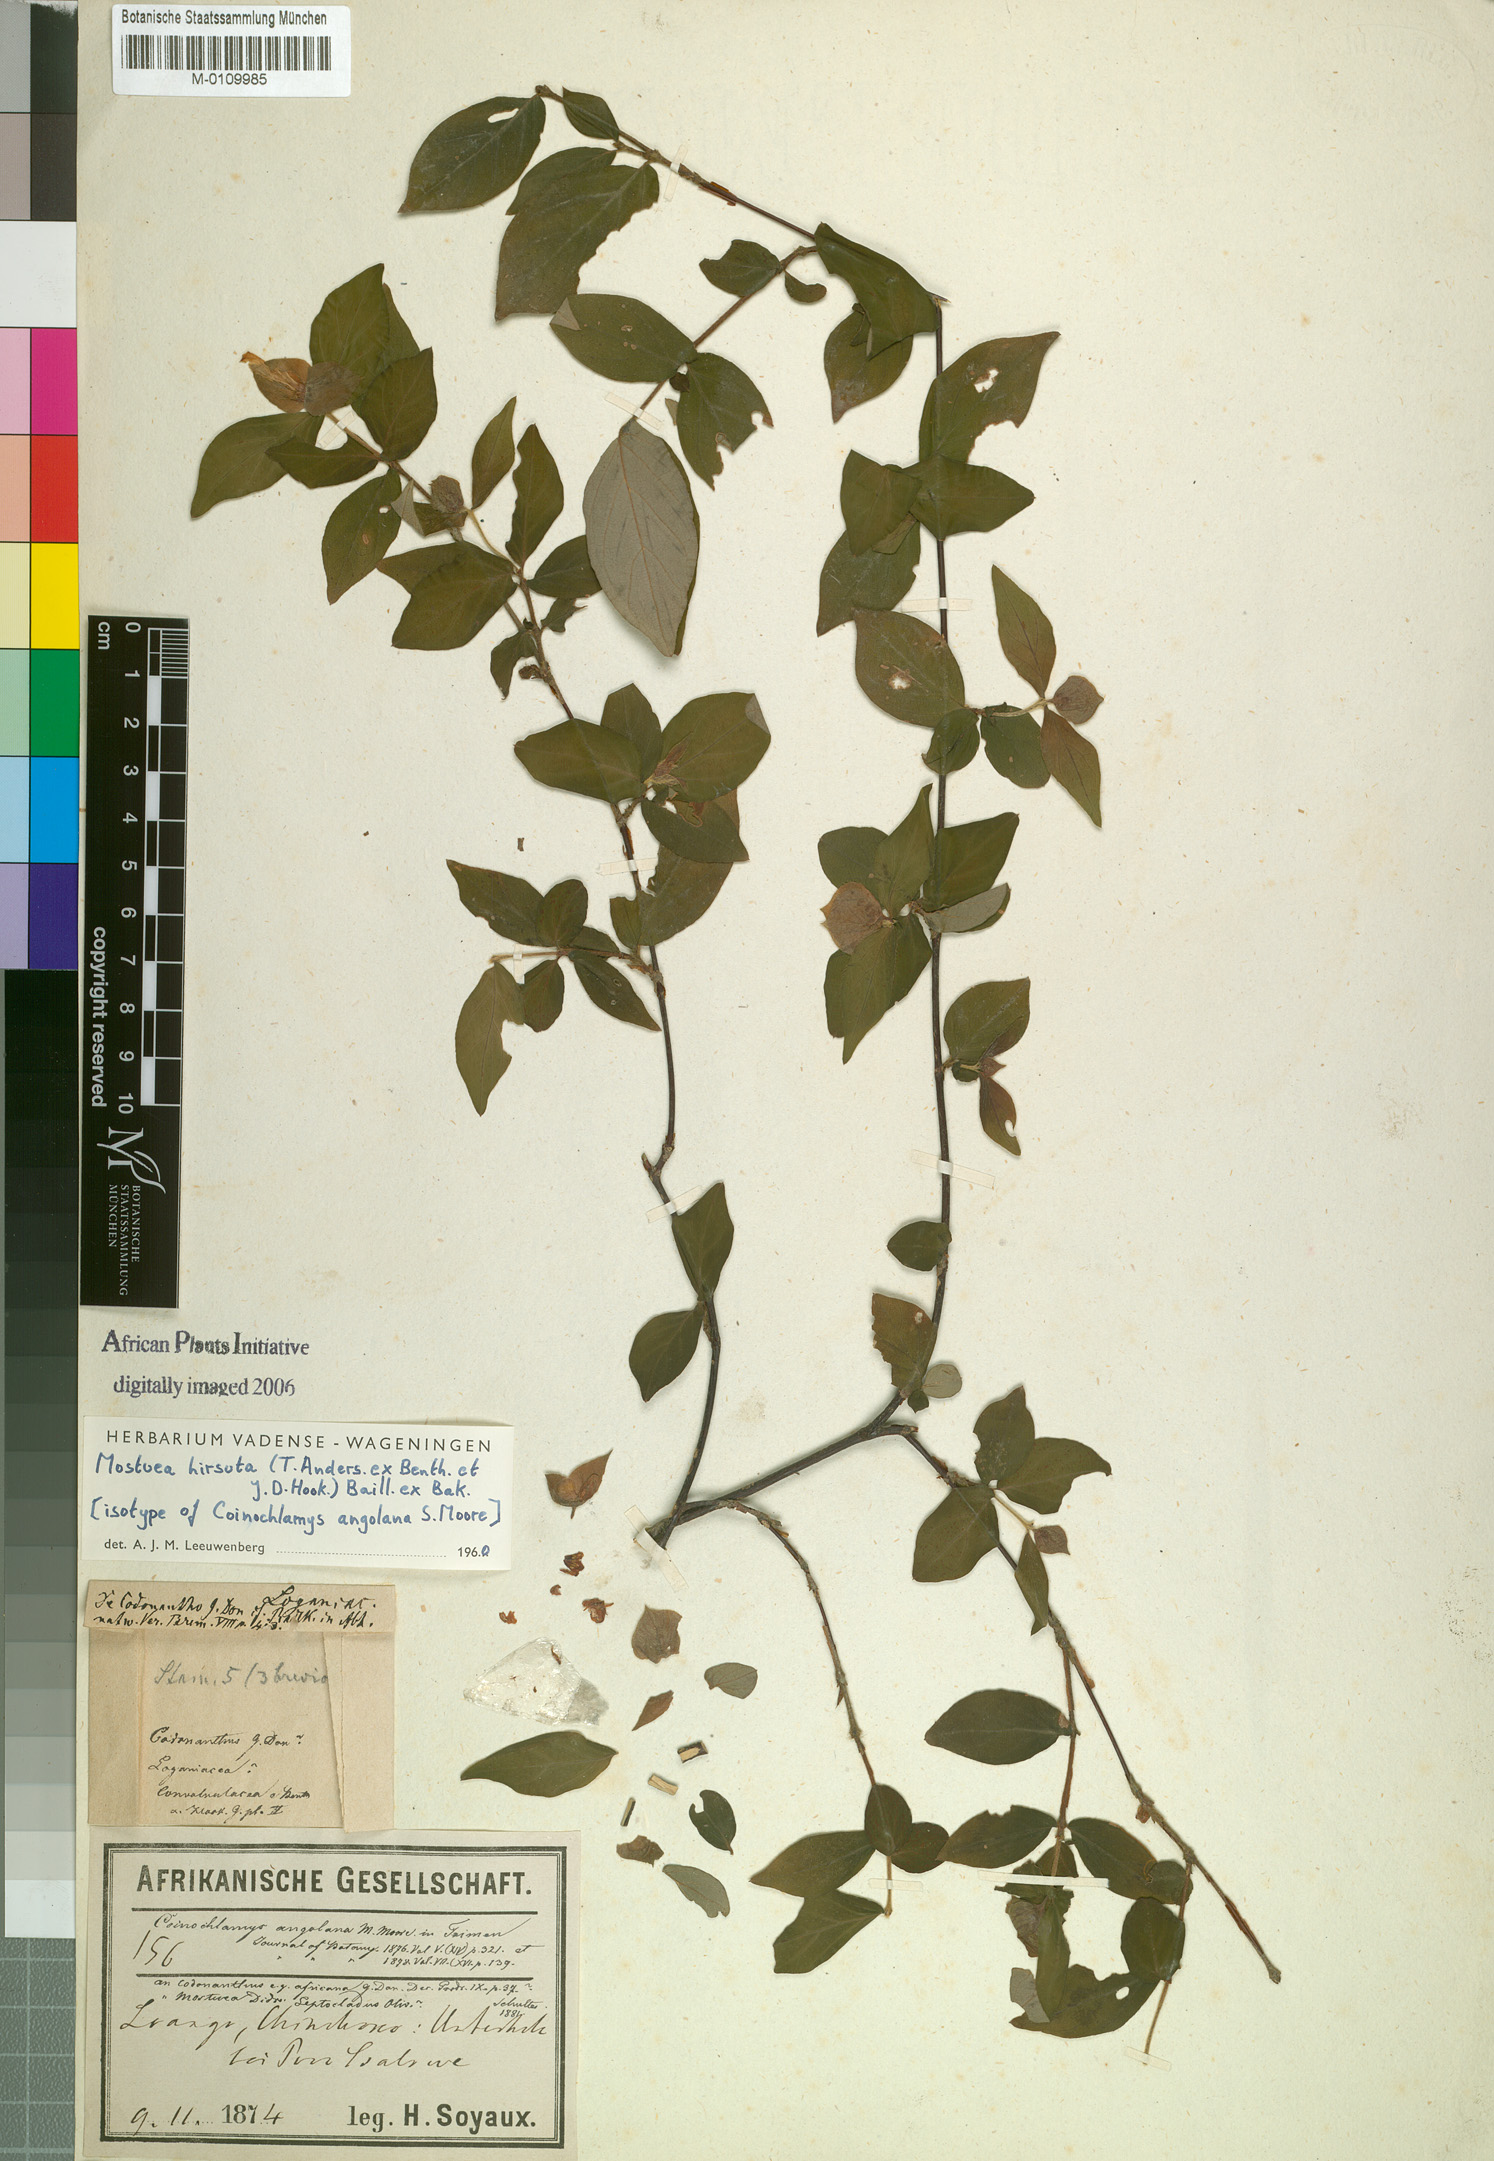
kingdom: Plantae
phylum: Tracheophyta
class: Magnoliopsida
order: Gentianales
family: Gelsemiaceae
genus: Mostuea
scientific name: Mostuea hirsuta
